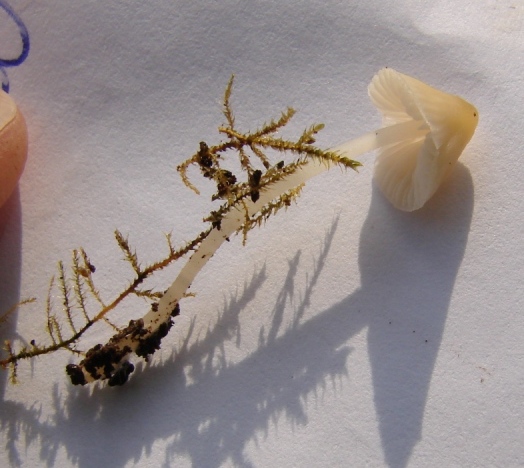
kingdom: Fungi
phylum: Basidiomycota
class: Agaricomycetes
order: Agaricales
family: Porotheleaceae
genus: Phloeomana
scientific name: Phloeomana minutula
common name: bleg huesvamp
